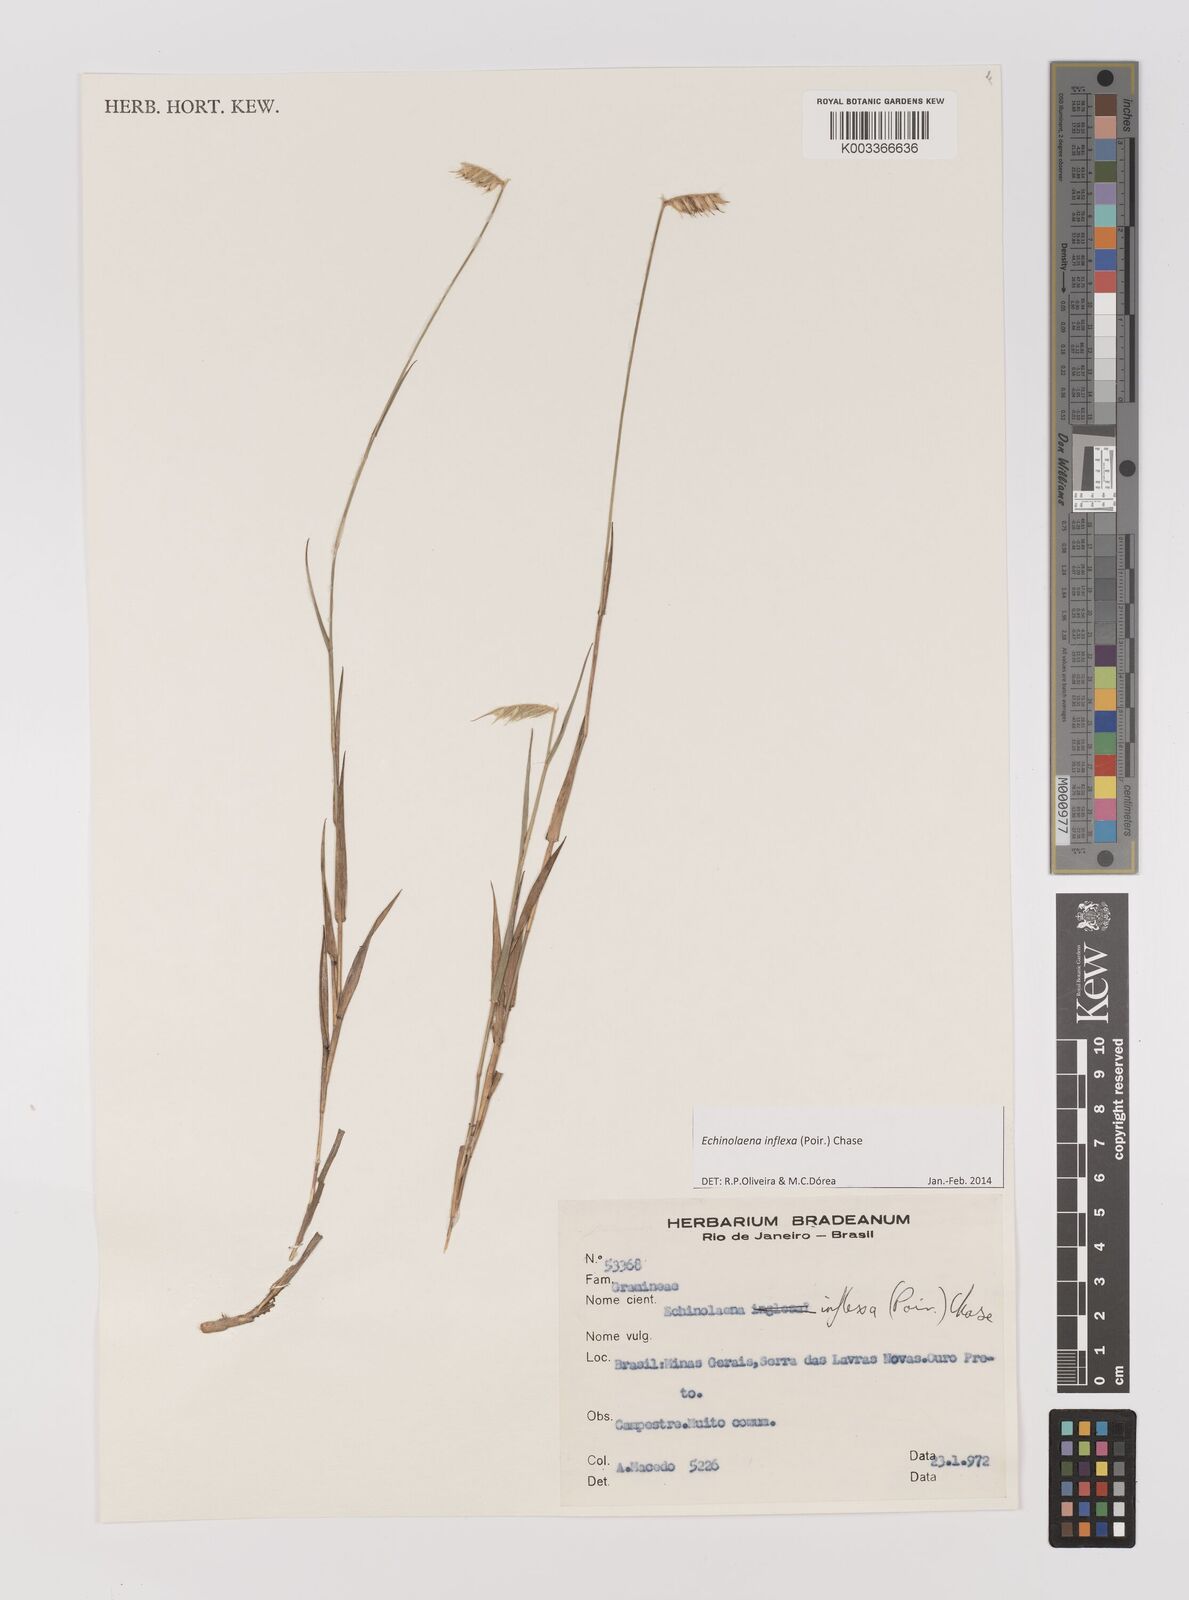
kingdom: Plantae
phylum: Tracheophyta
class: Liliopsida
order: Poales
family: Poaceae
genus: Echinolaena
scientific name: Echinolaena inflexa
